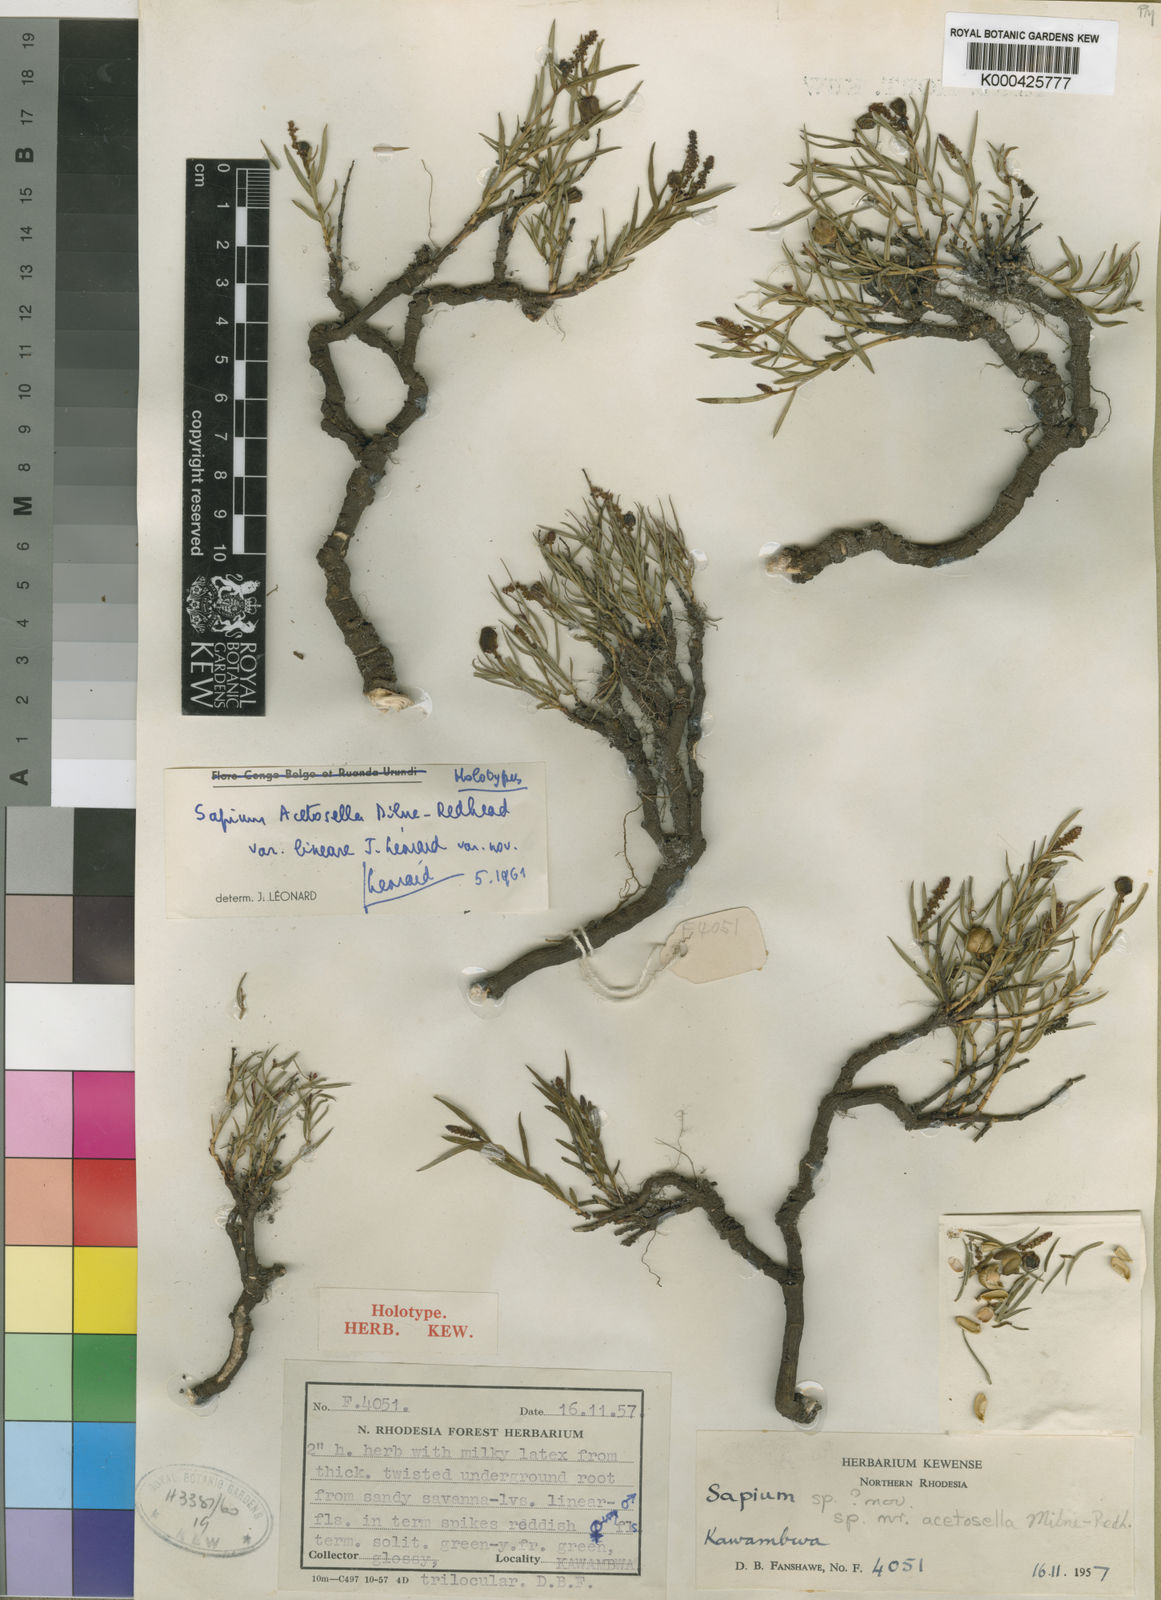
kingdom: Plantae
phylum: Tracheophyta
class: Magnoliopsida
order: Malpighiales
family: Euphorbiaceae
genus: Microstachys
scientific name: Microstachys acetosella
